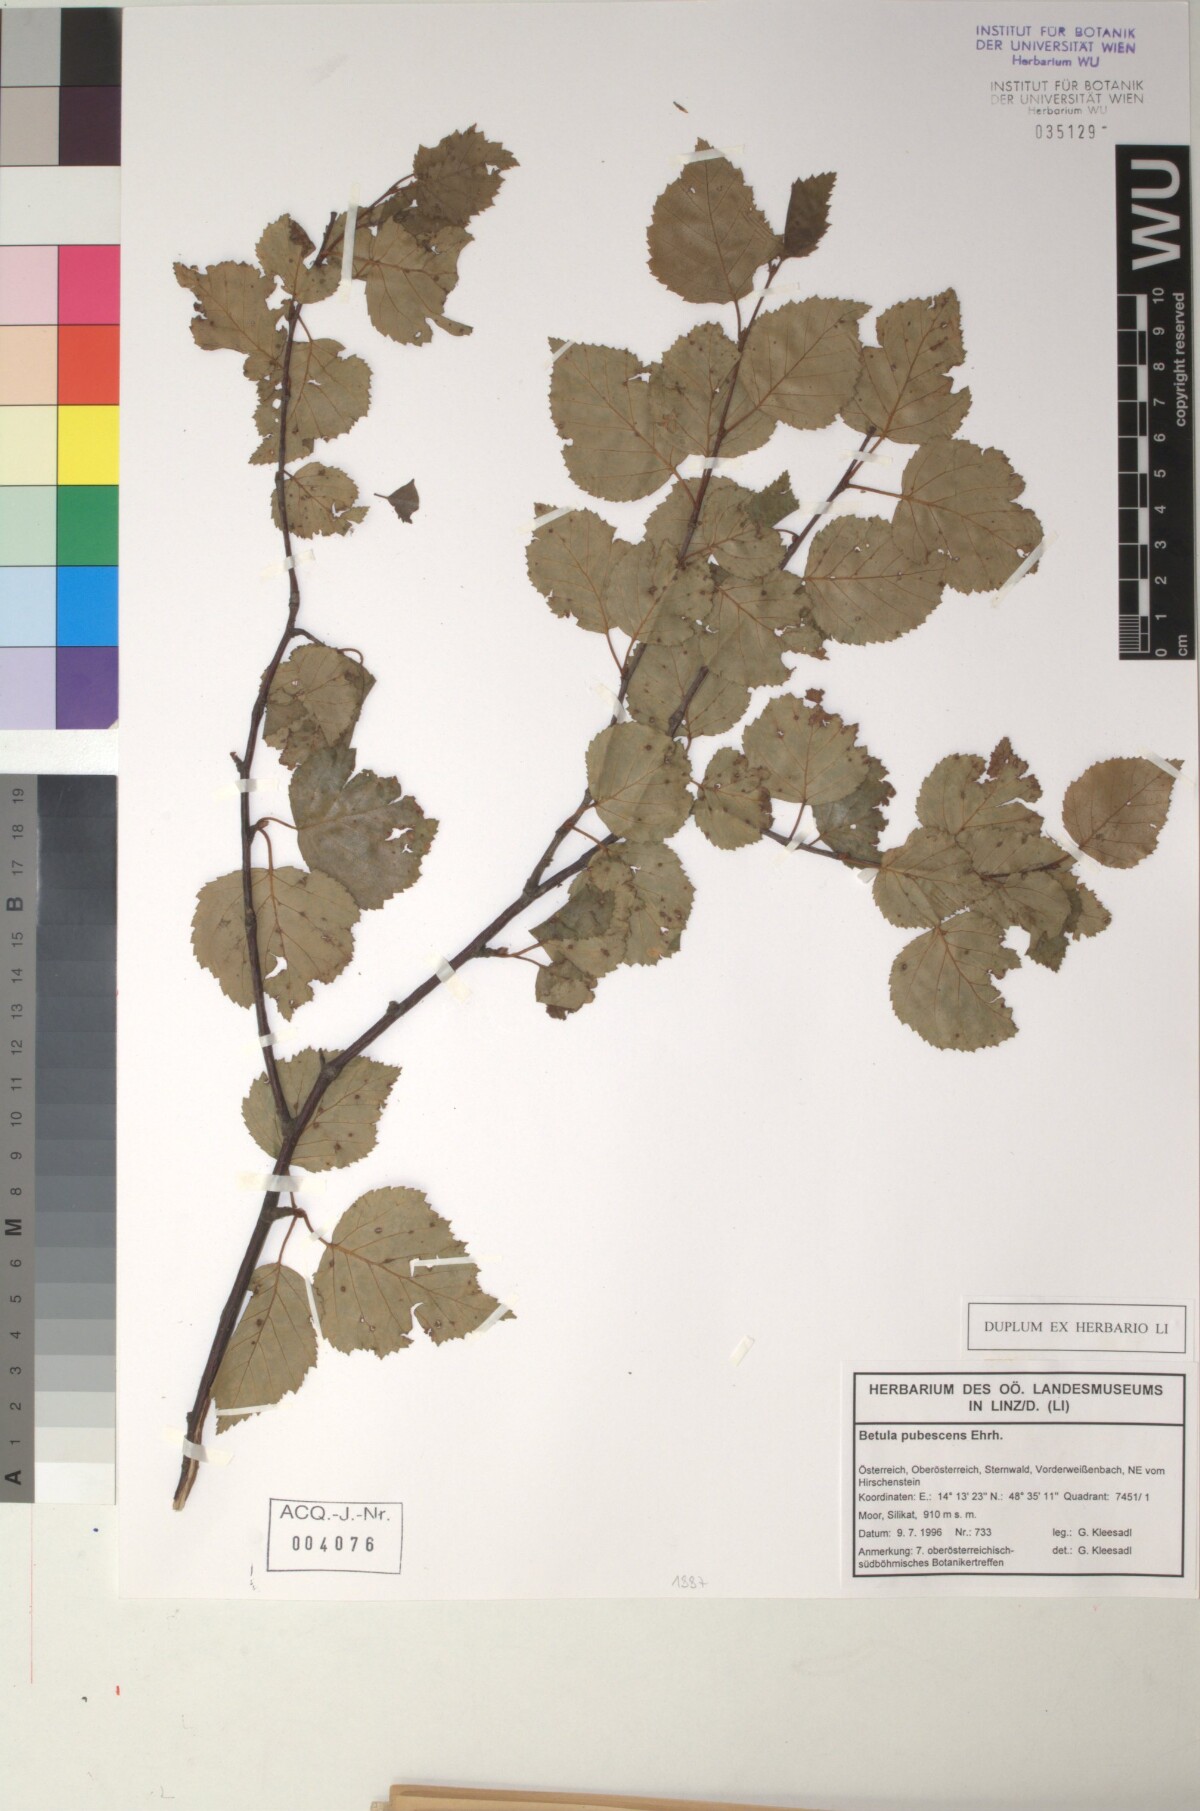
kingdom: Plantae
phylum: Tracheophyta
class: Magnoliopsida
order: Fagales
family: Betulaceae
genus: Betula
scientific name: Betula pubescens
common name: Downy birch
